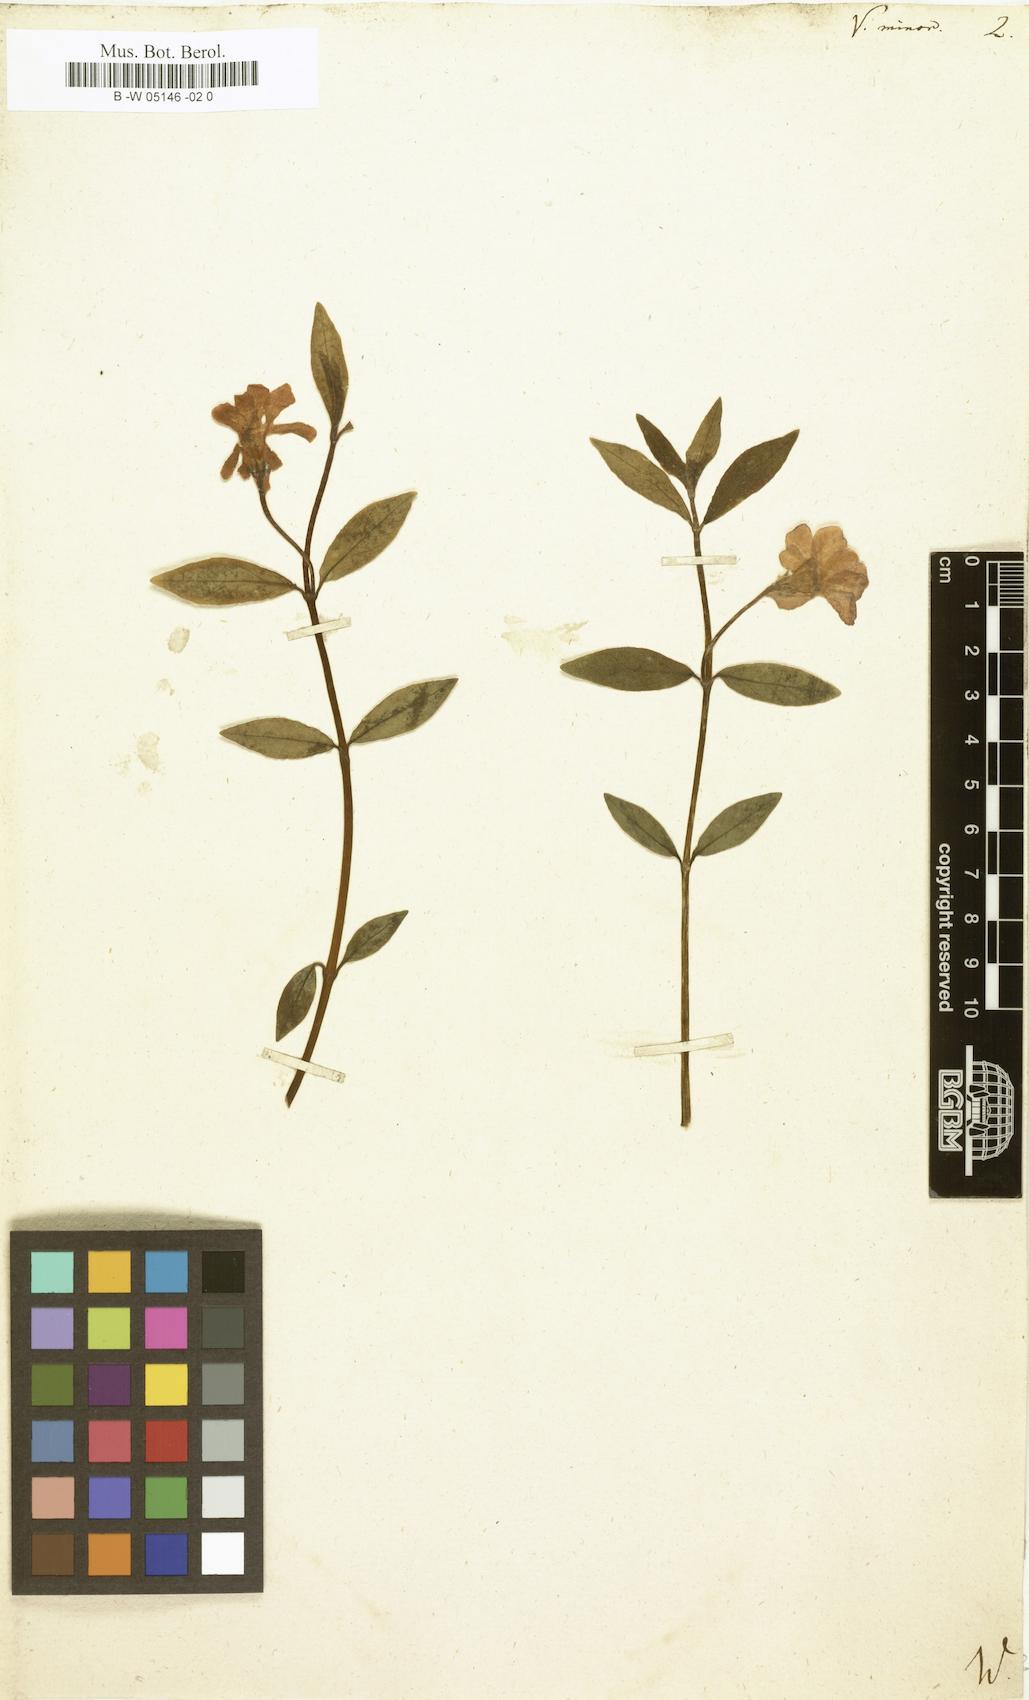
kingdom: Plantae
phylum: Tracheophyta
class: Magnoliopsida
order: Gentianales
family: Apocynaceae
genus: Vinca
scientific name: Vinca minor
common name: Lesser periwinkle
